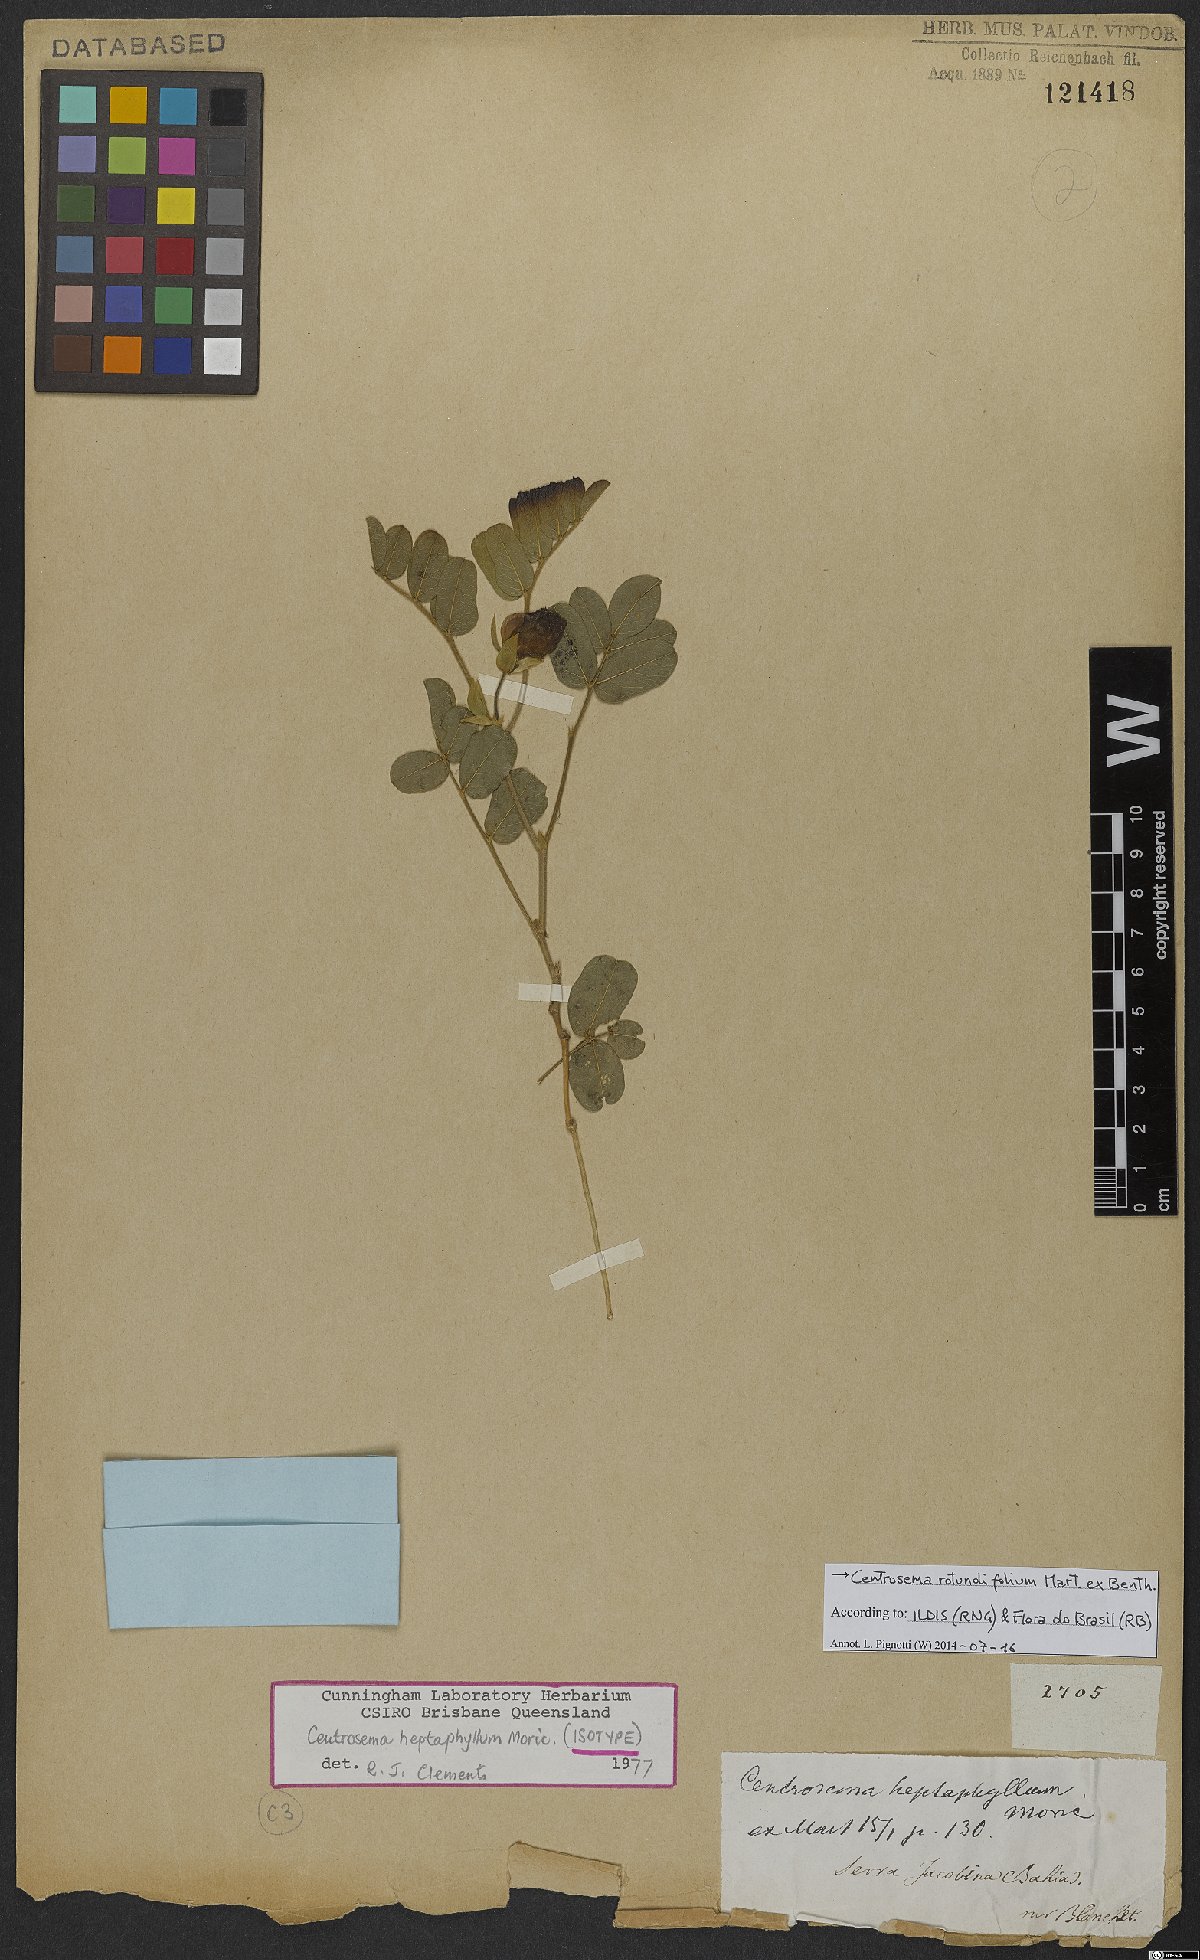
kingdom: Plantae
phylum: Tracheophyta
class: Magnoliopsida
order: Fabales
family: Fabaceae
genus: Centrosema
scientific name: Centrosema rotundifolium
